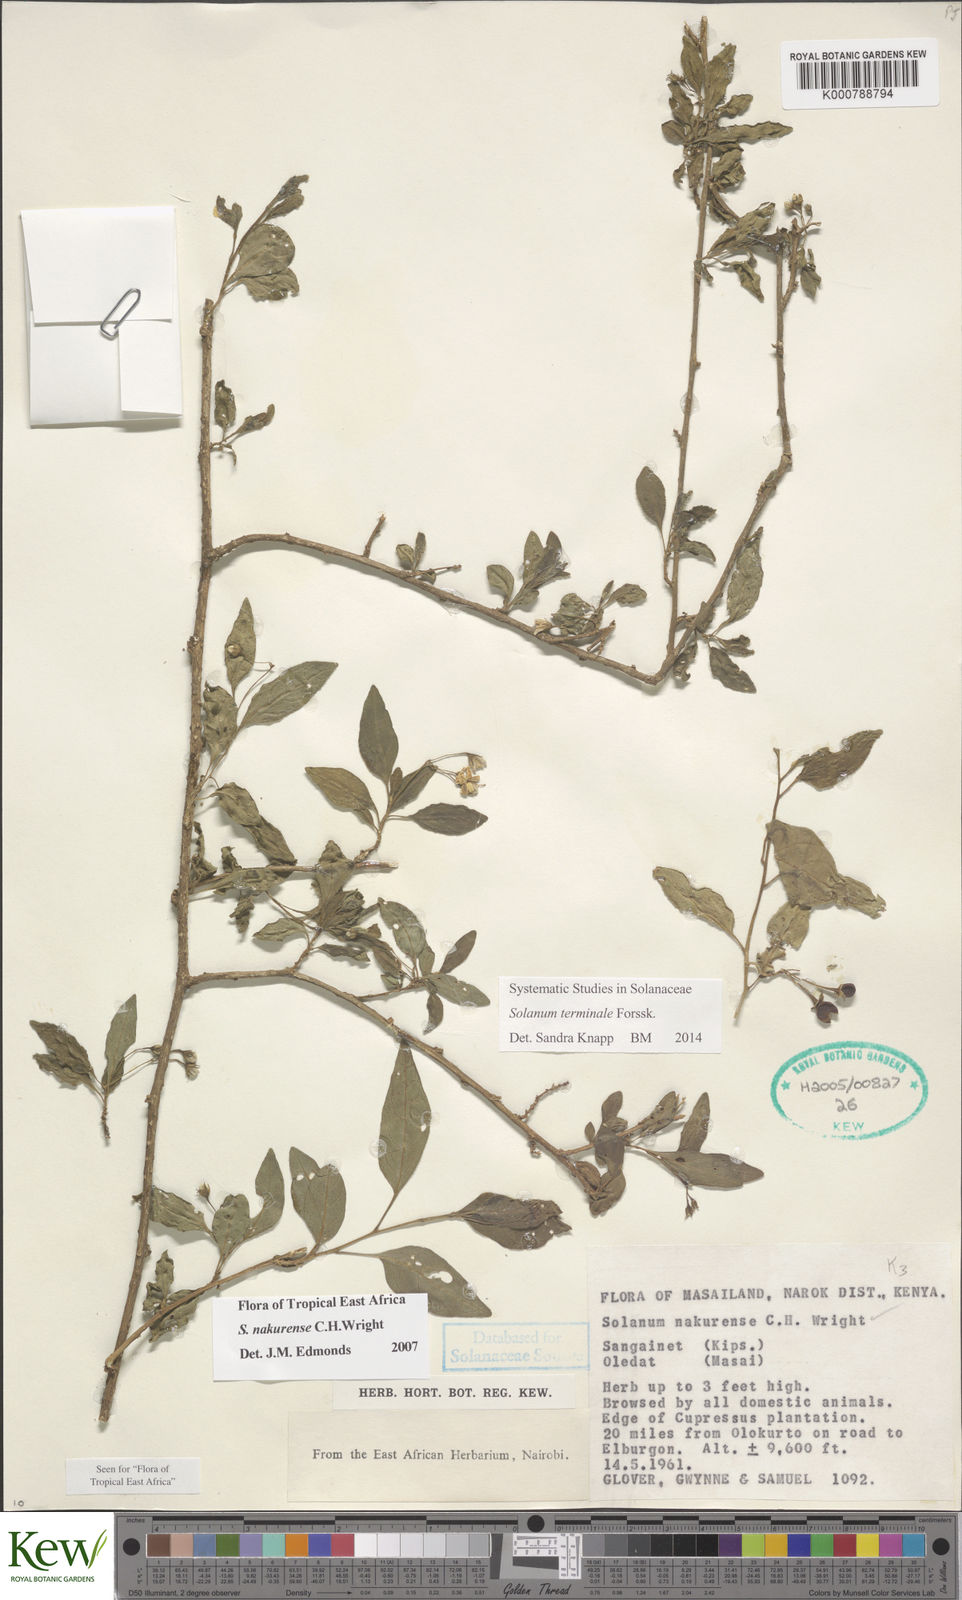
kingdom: Plantae
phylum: Tracheophyta
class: Magnoliopsida
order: Solanales
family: Solanaceae
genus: Solanum
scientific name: Solanum terminale
